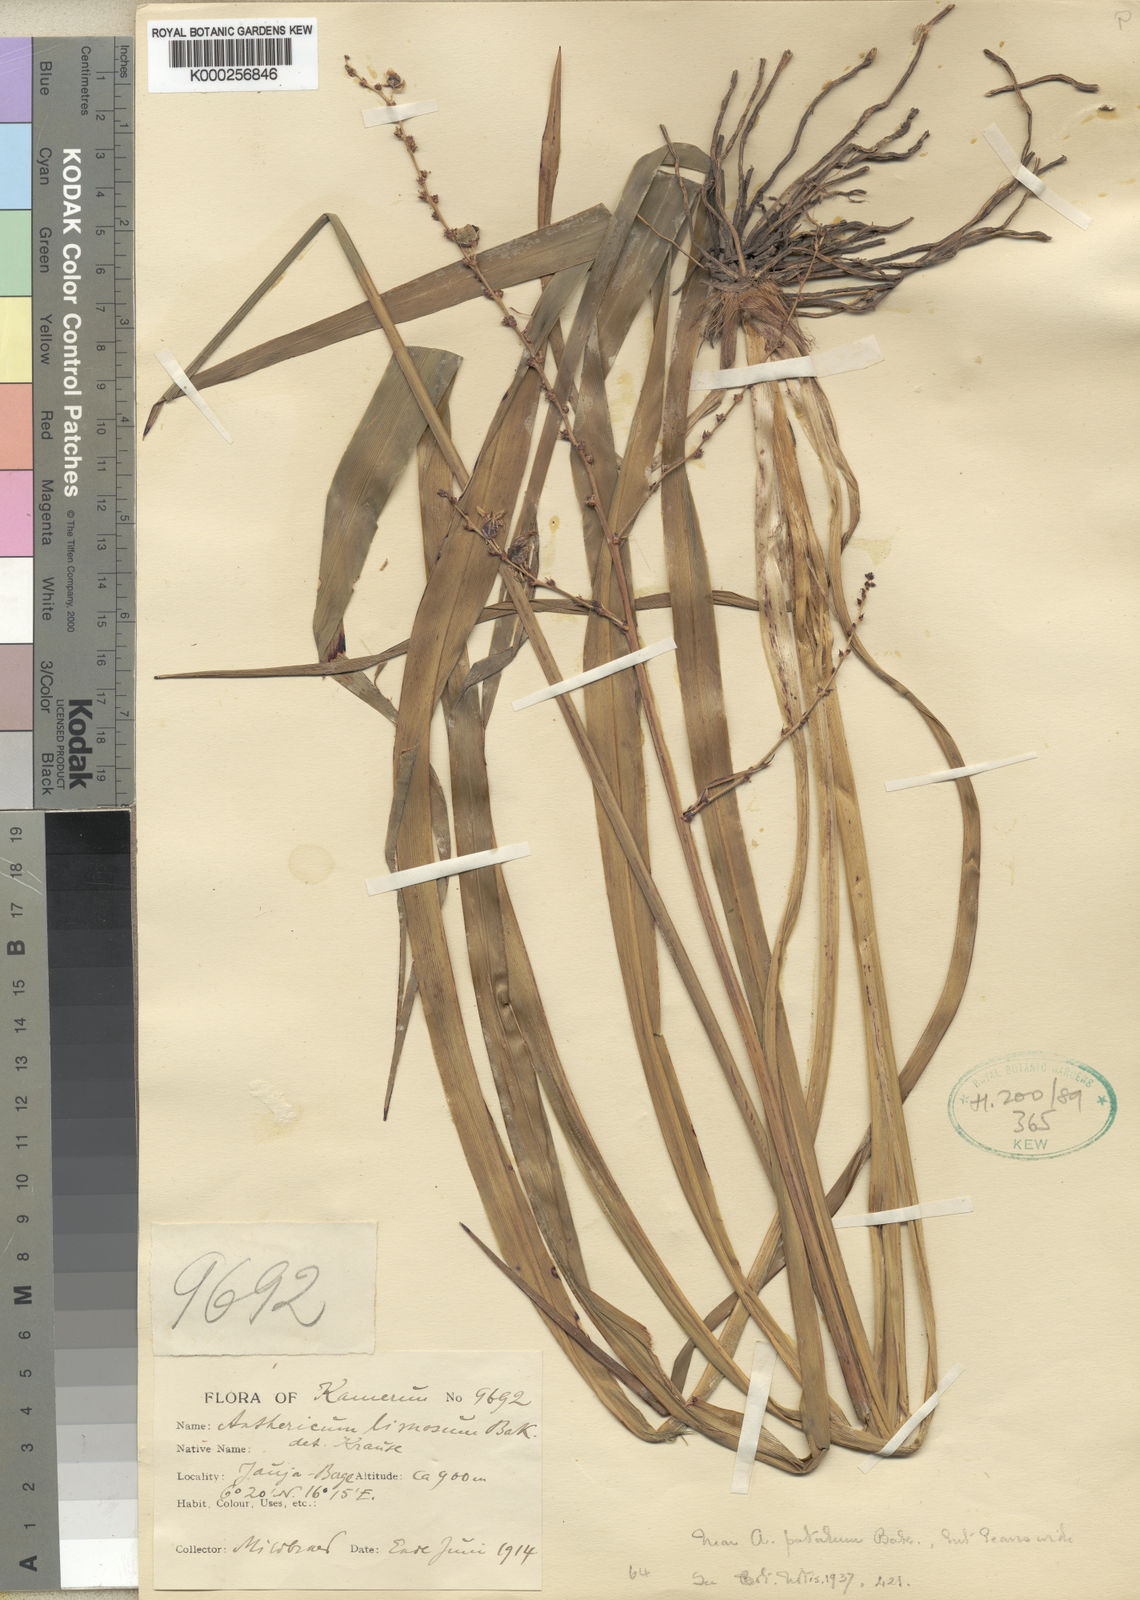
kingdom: Plantae
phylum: Tracheophyta
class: Liliopsida
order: Asparagales
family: Asparagaceae
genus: Chlorophytum
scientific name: Chlorophytum limosum
